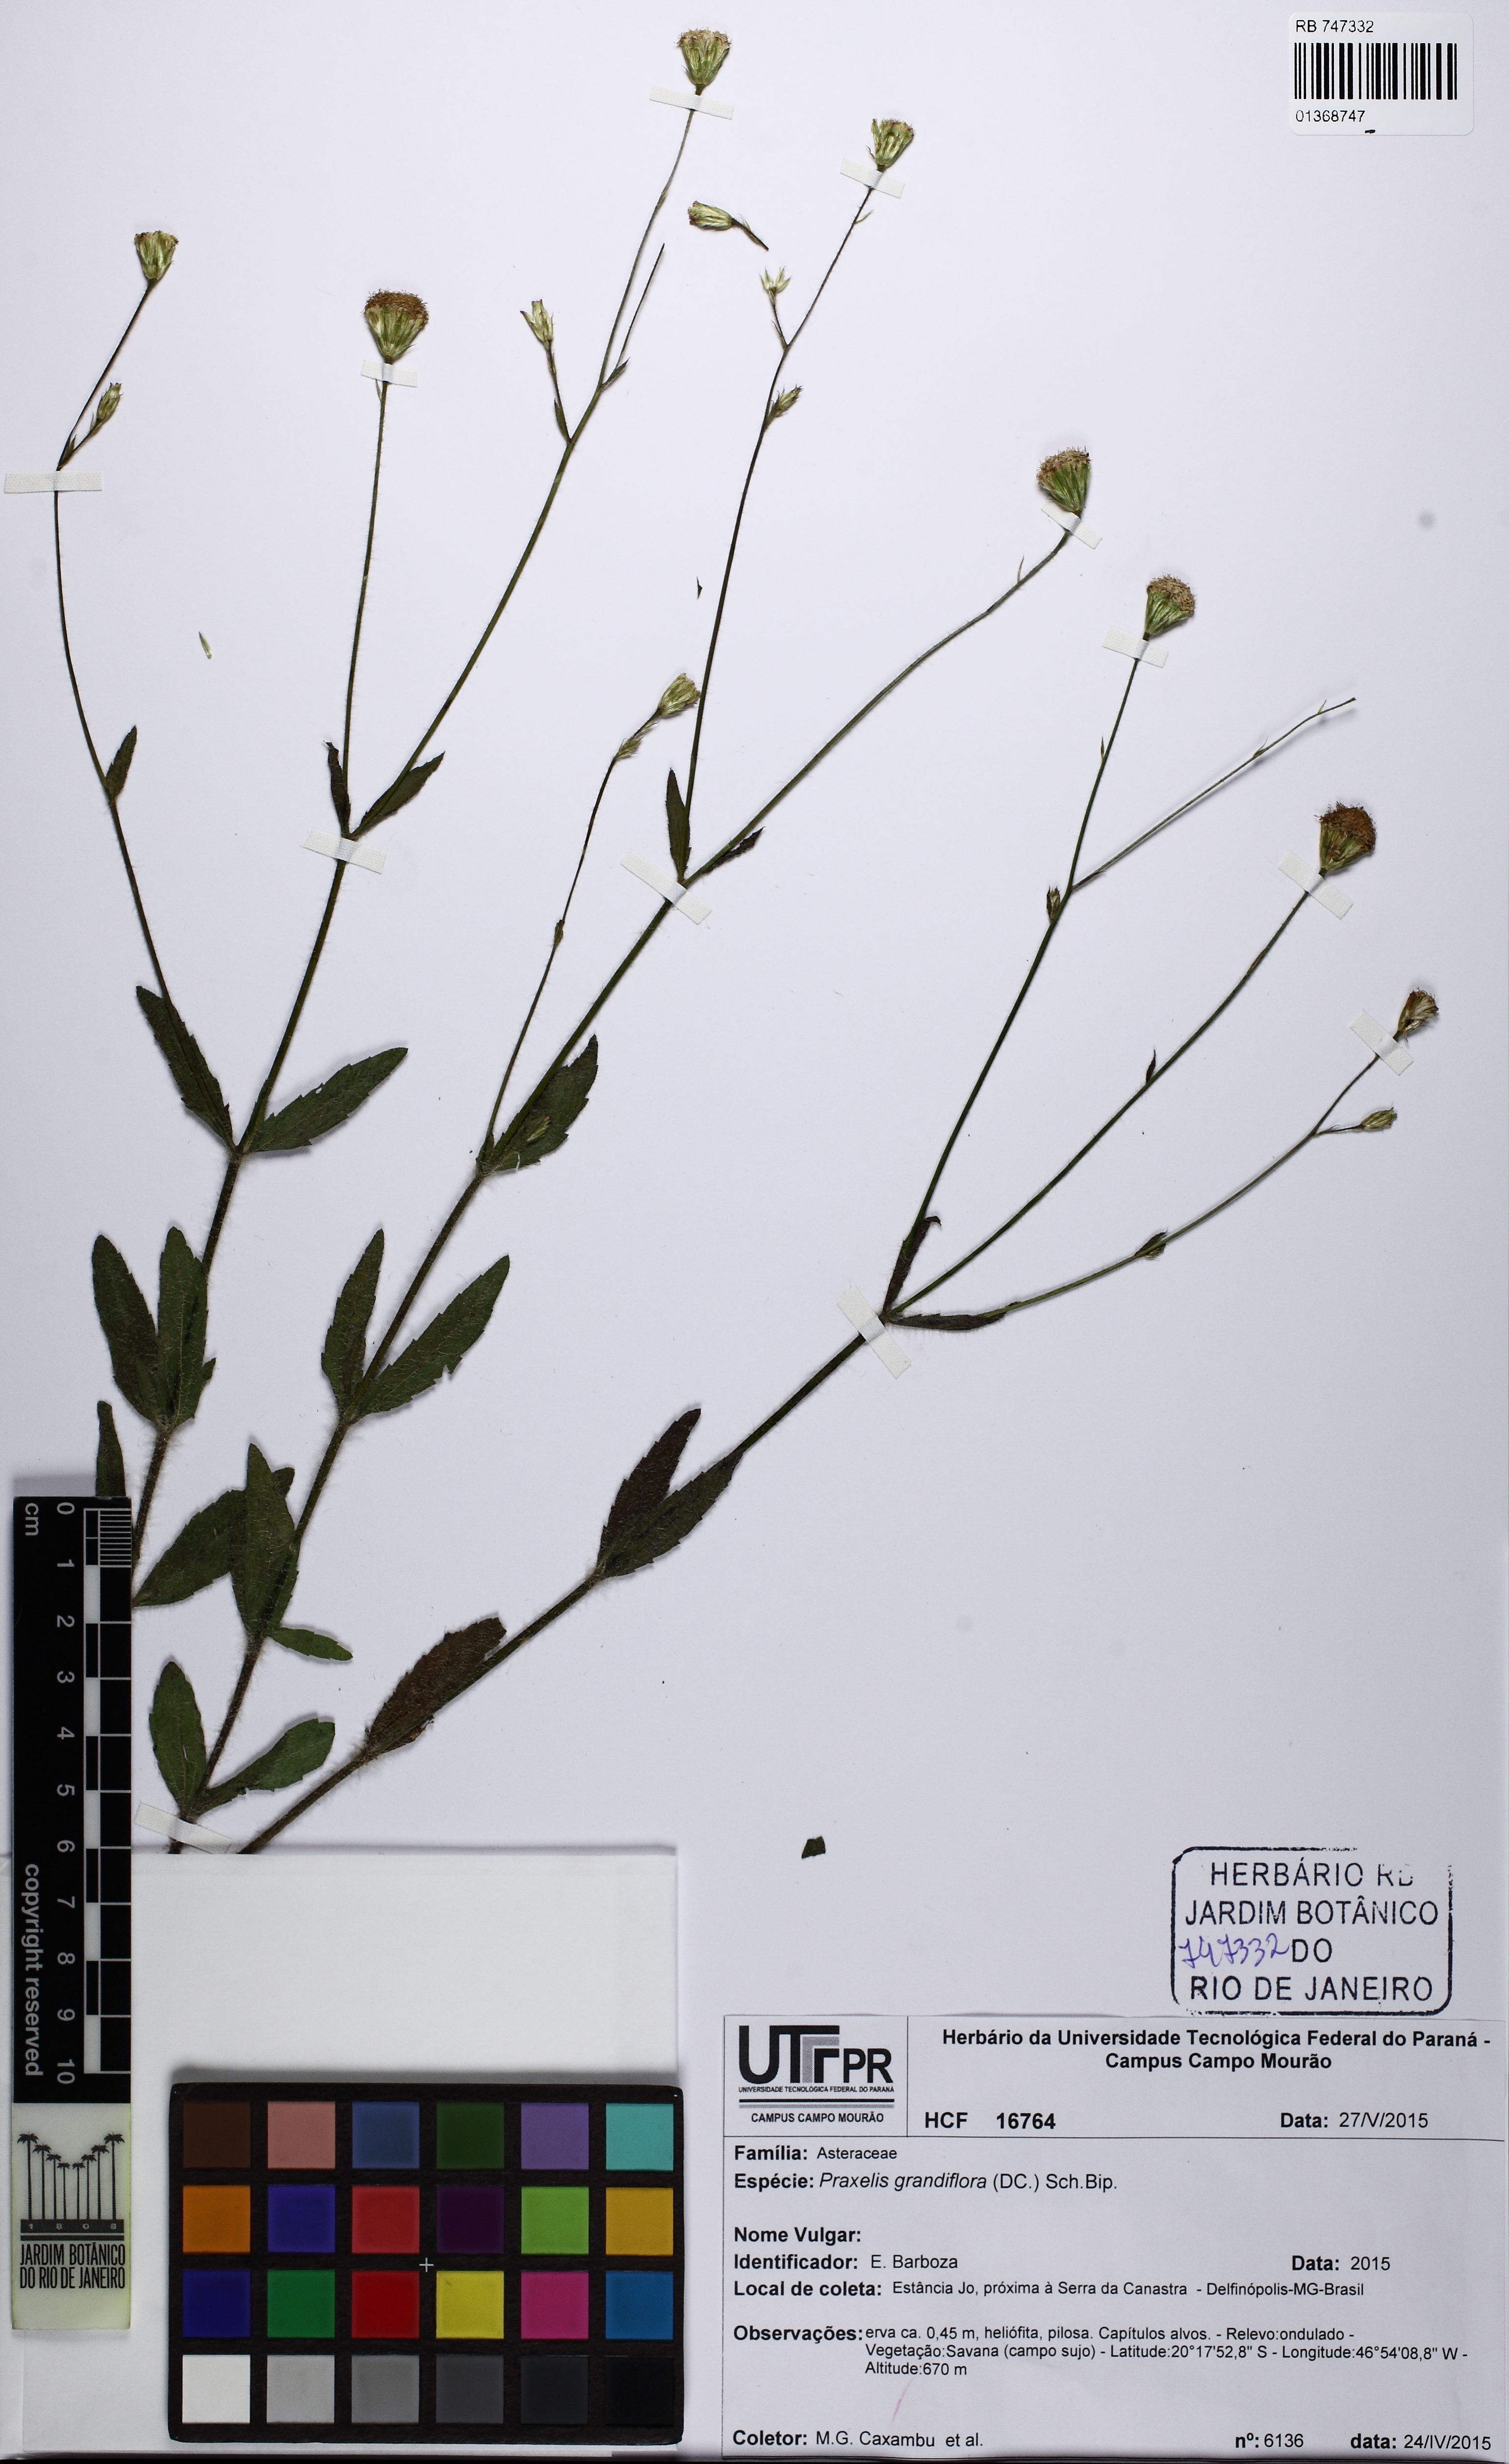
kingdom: Plantae
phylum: Tracheophyta
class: Magnoliopsida
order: Asterales
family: Asteraceae
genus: Praxelis
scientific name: Praxelis grandiflora
